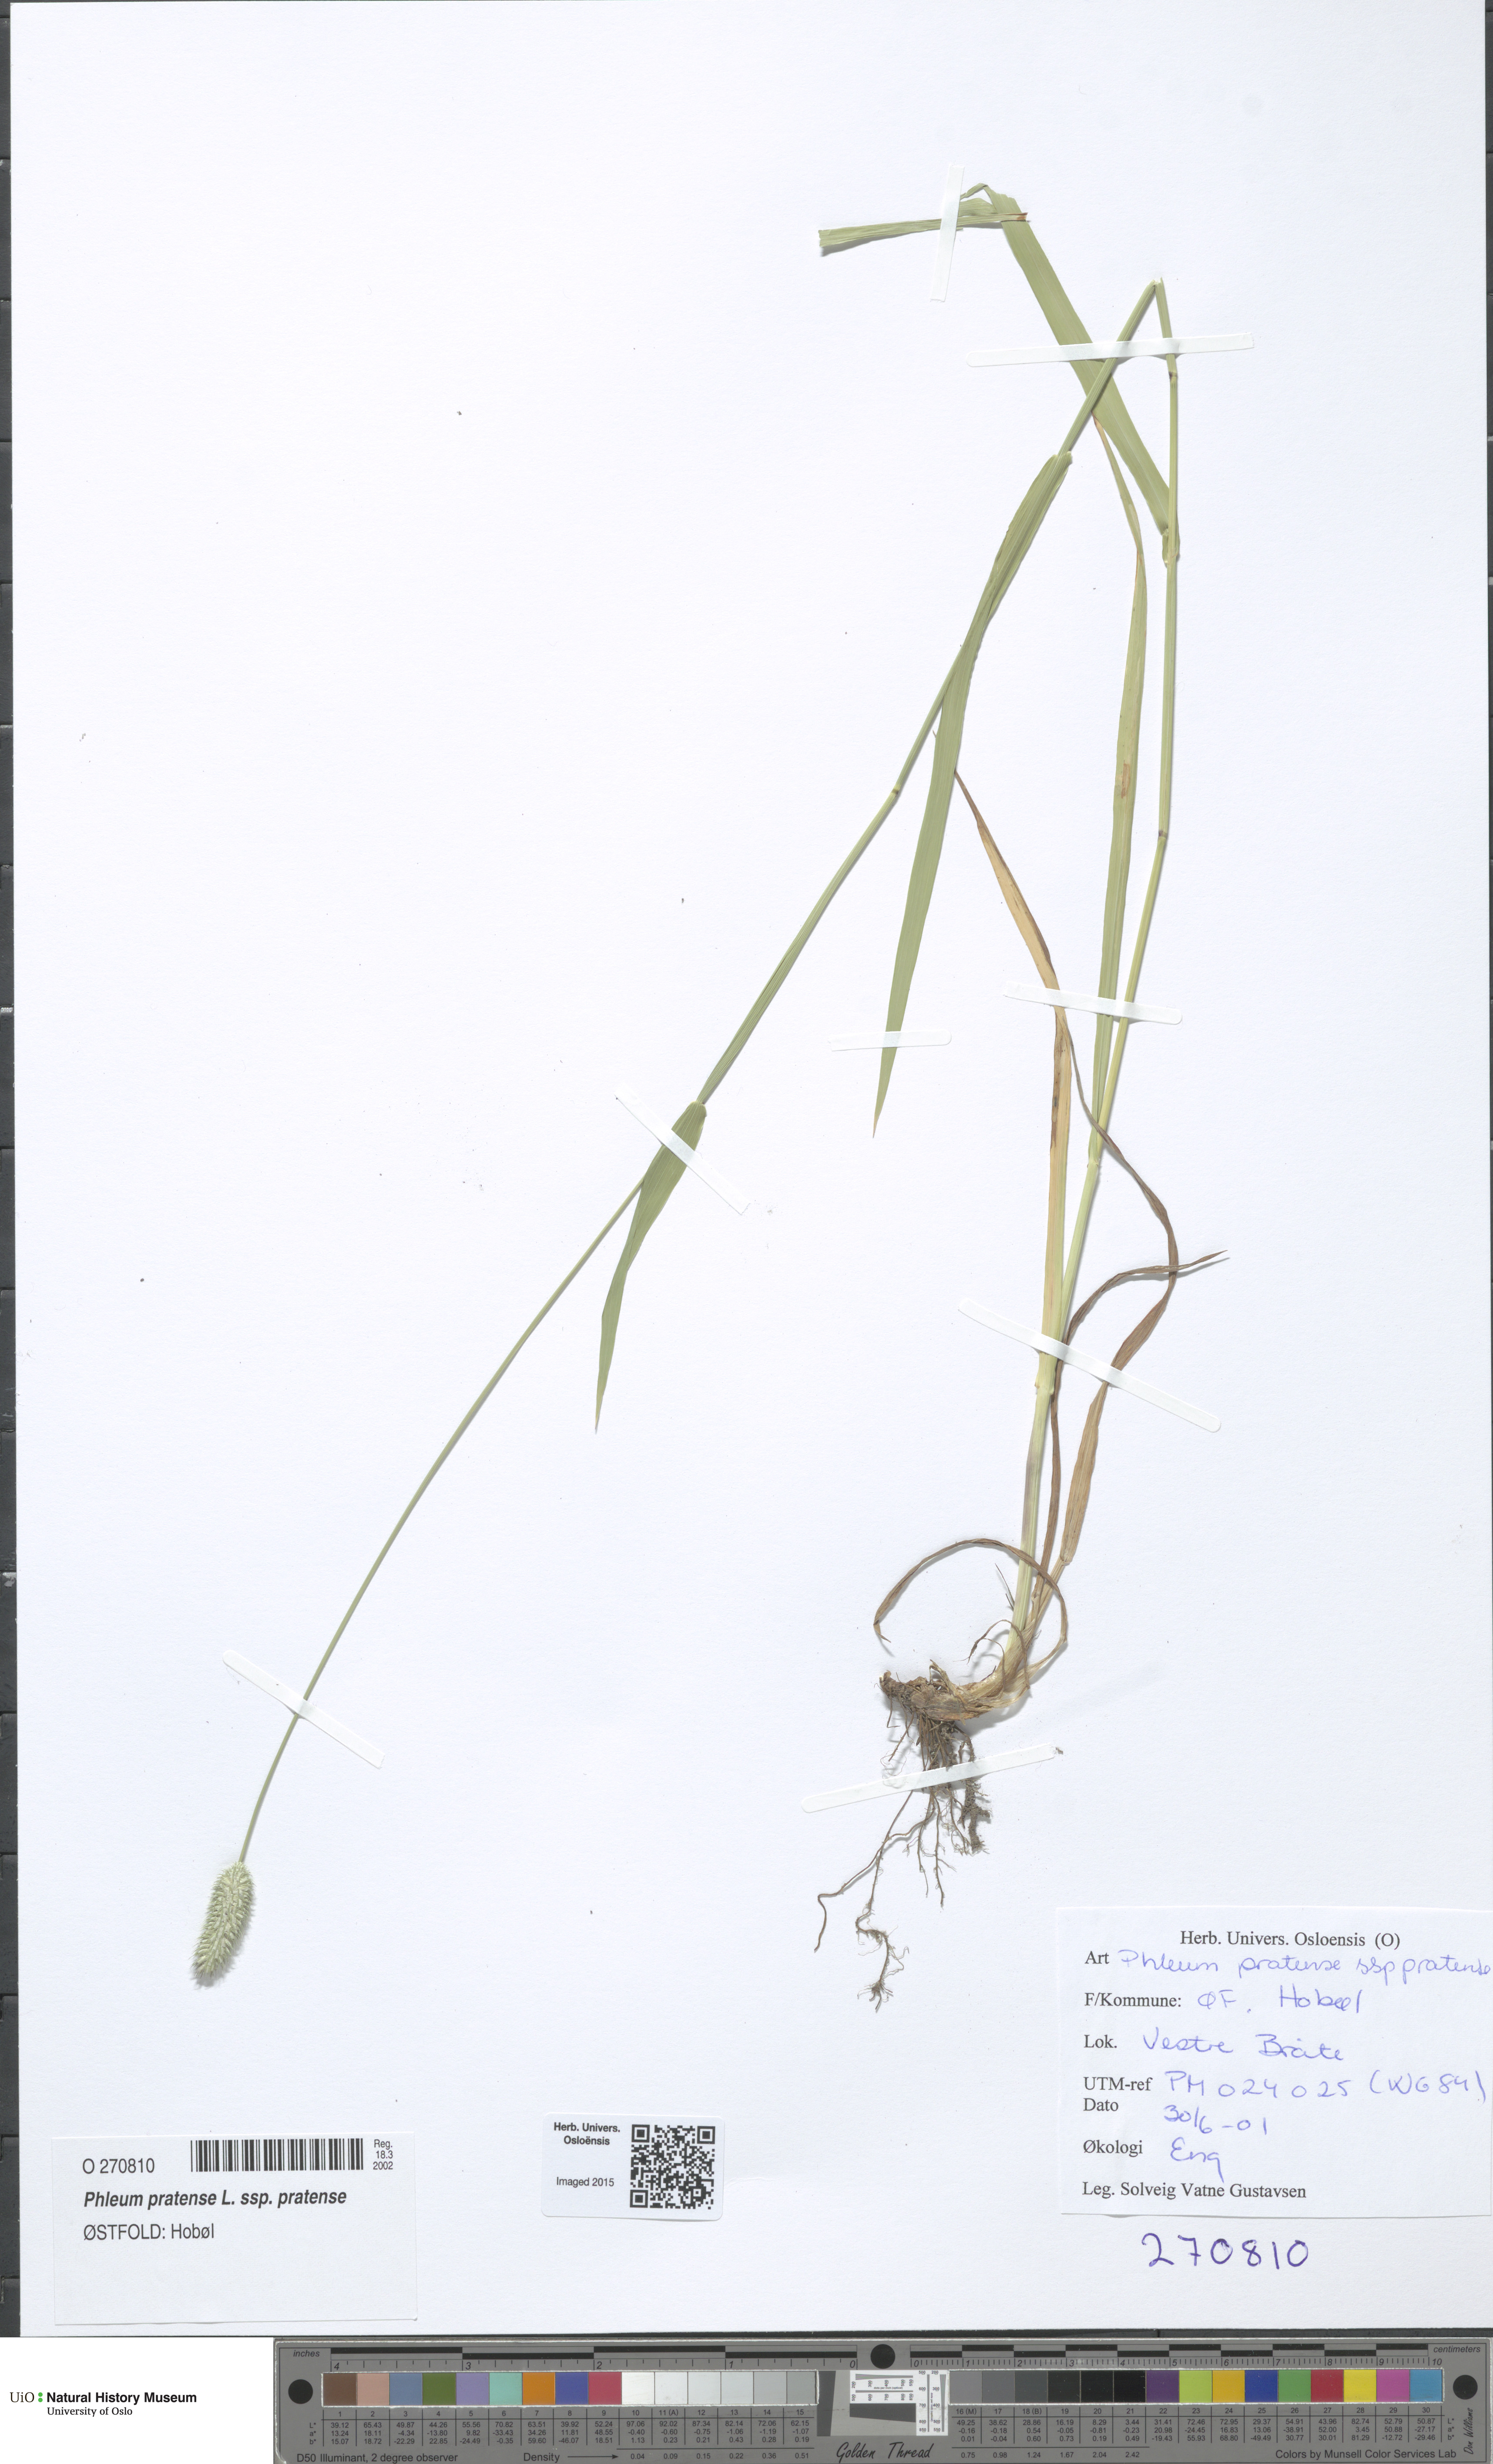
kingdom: Plantae
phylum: Tracheophyta
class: Liliopsida
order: Poales
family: Poaceae
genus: Phleum
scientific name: Phleum pratense
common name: Timothy grass
